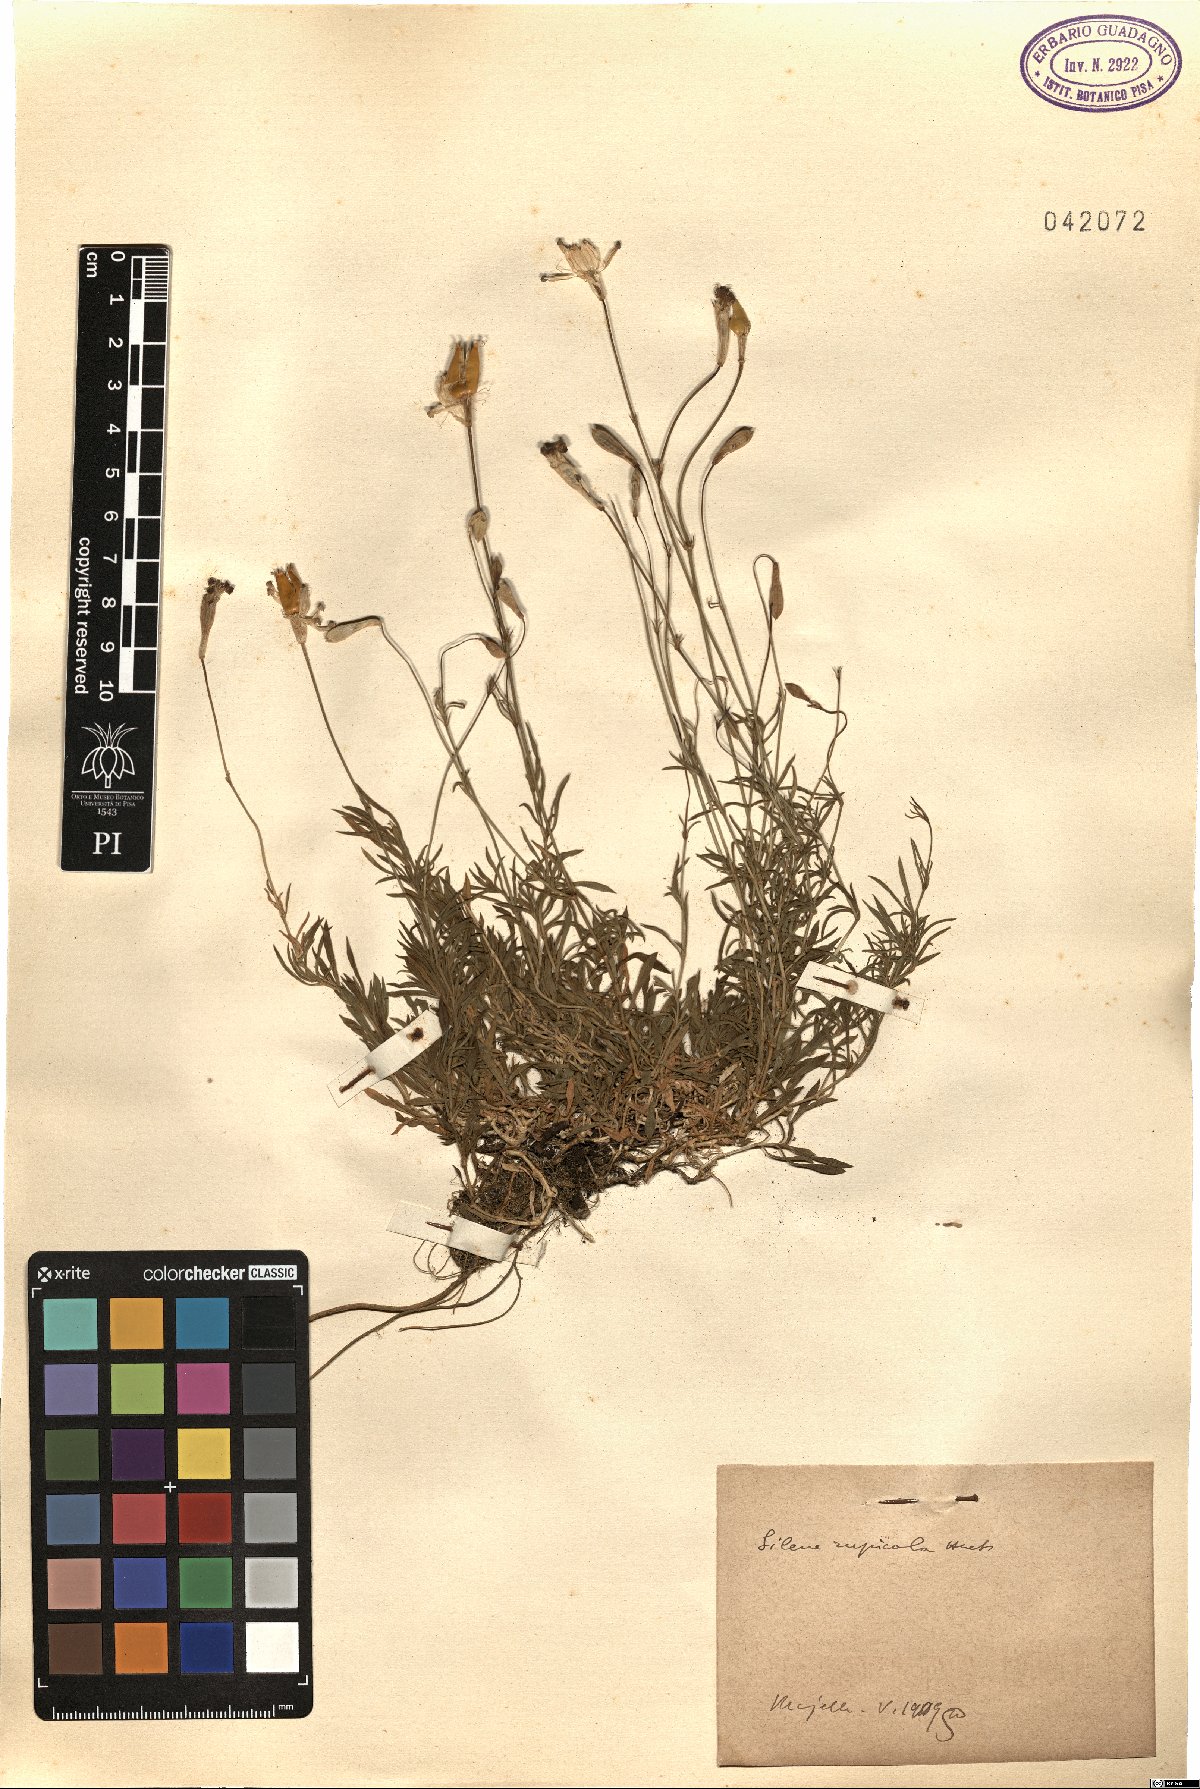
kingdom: Plantae
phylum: Tracheophyta
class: Magnoliopsida
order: Caryophyllales
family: Caryophyllaceae
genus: Silene
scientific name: Silene saxifraga
